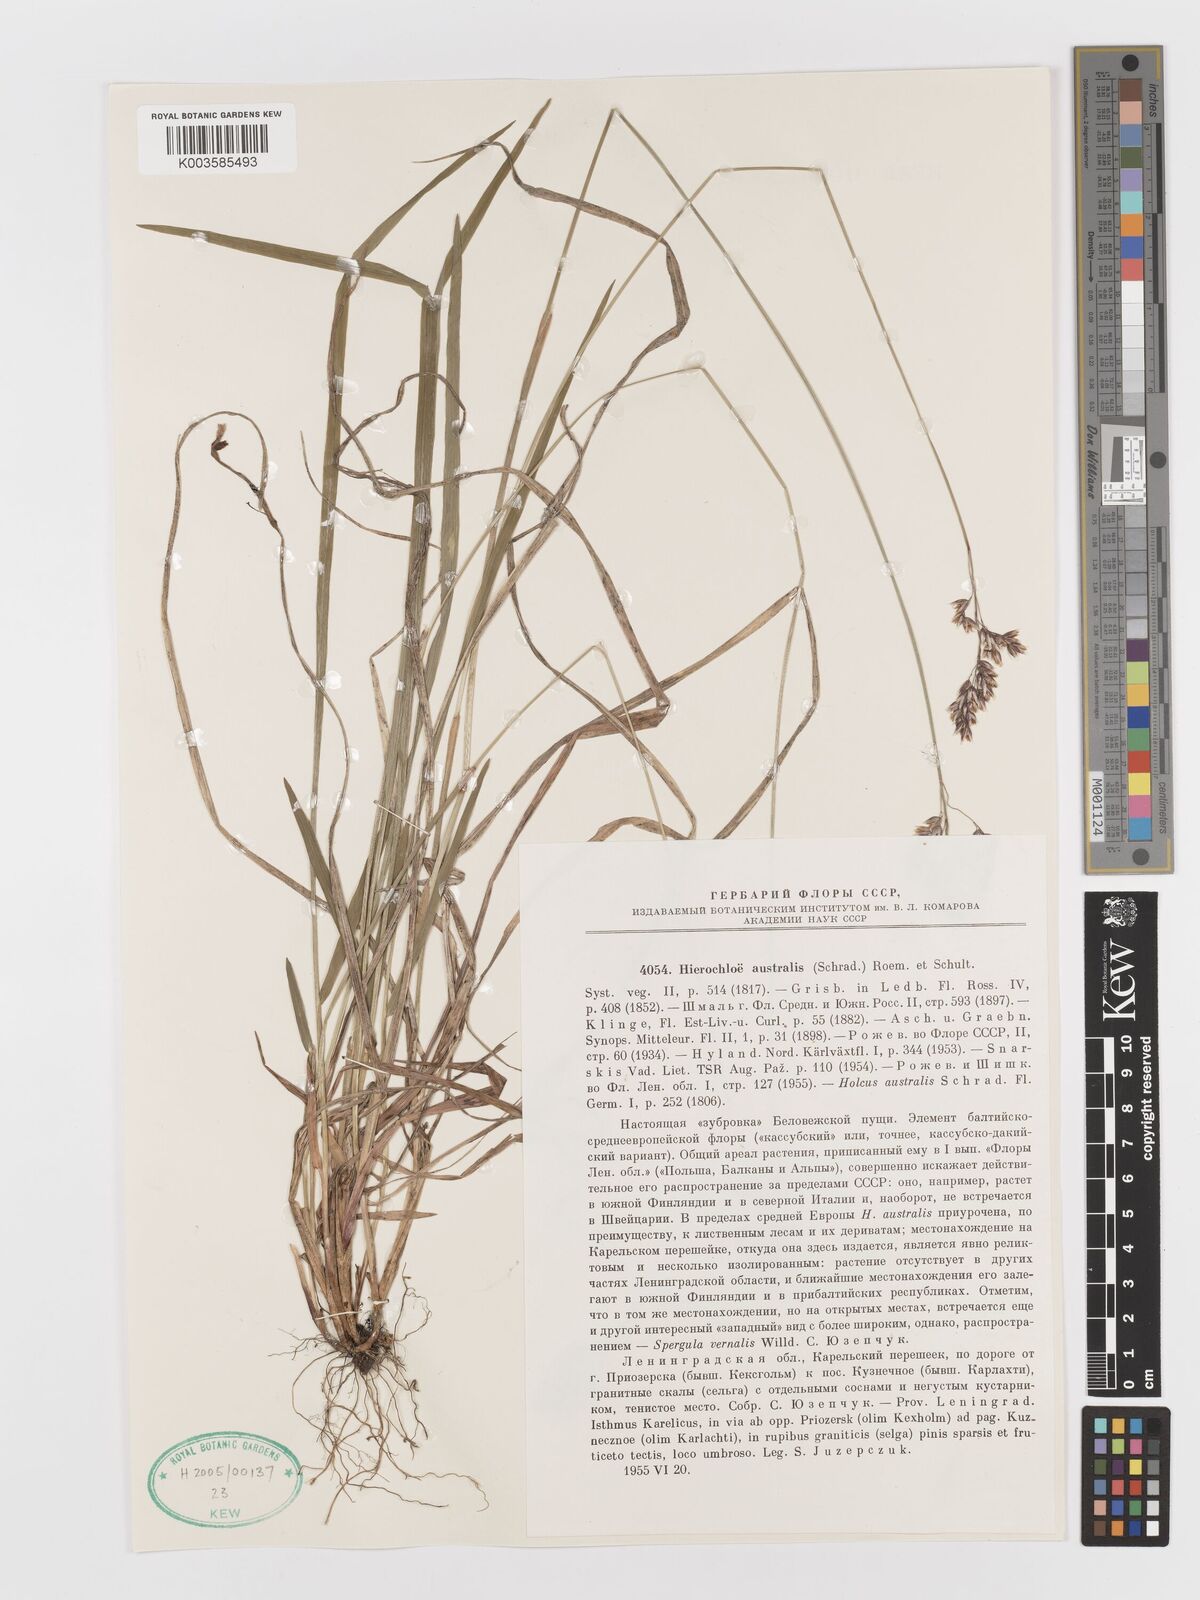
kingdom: Plantae
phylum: Tracheophyta
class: Liliopsida
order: Poales
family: Poaceae
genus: Anthoxanthum
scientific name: Anthoxanthum australe
